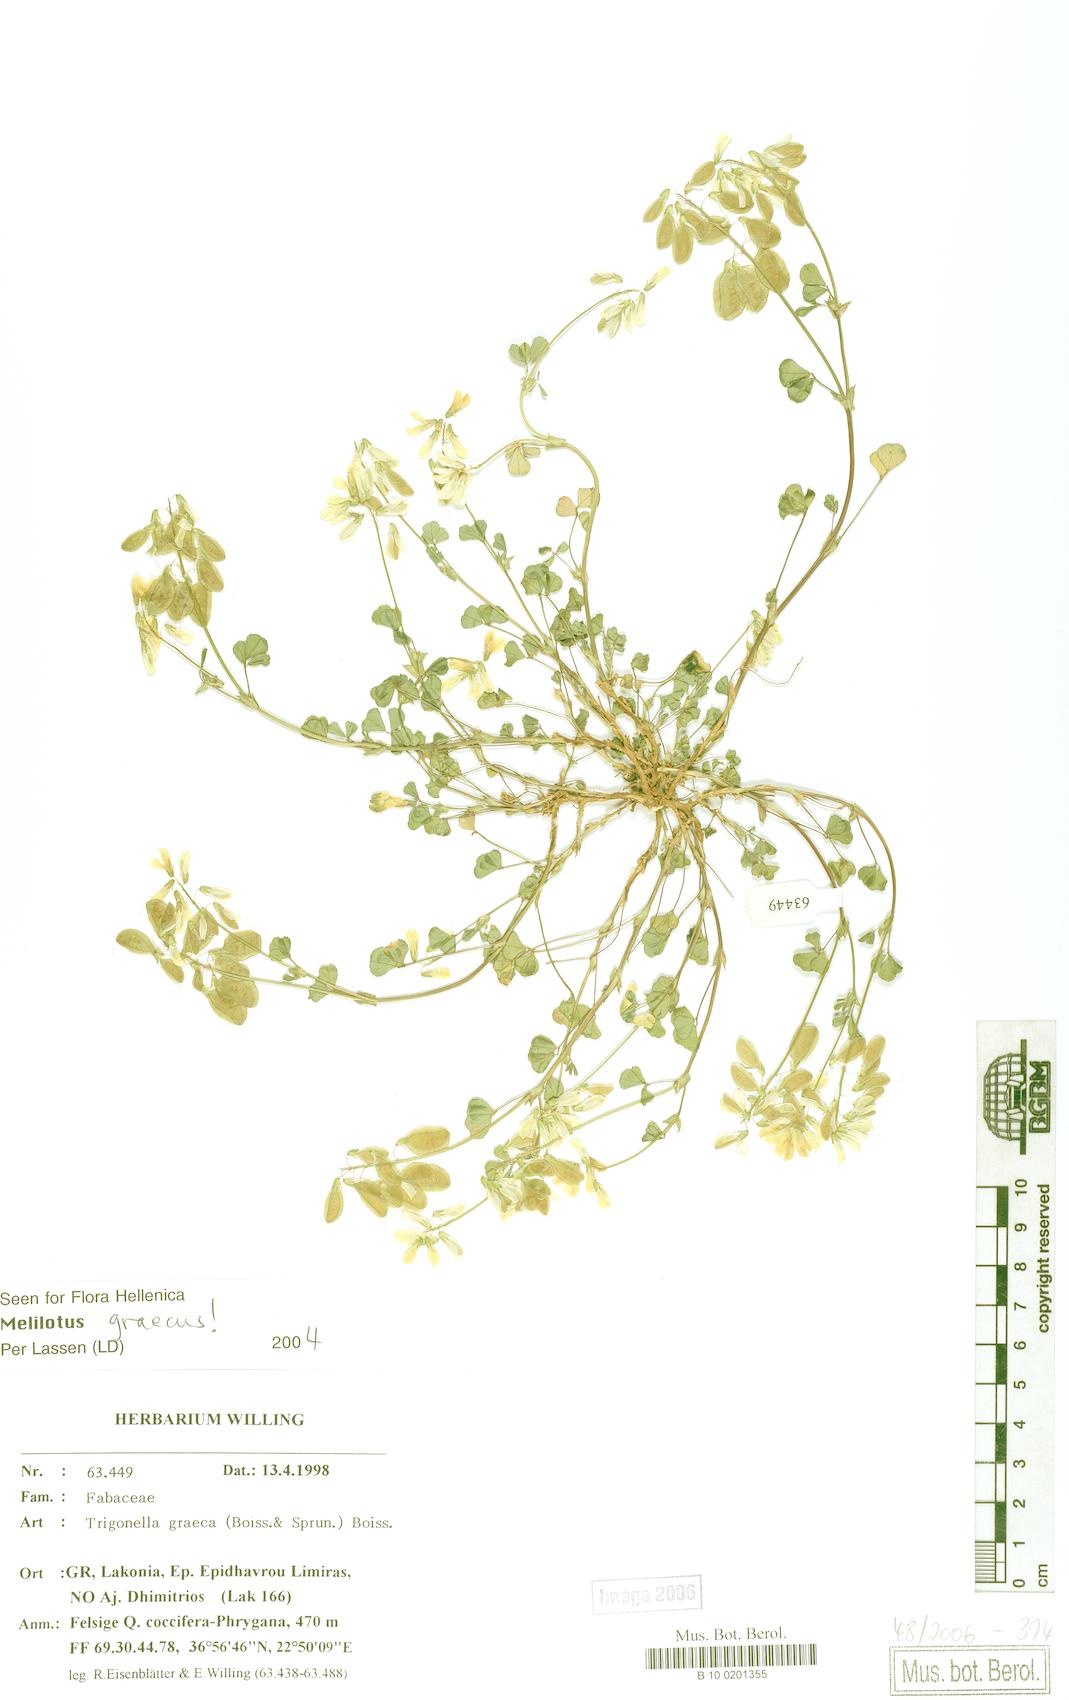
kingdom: Plantae
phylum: Tracheophyta
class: Magnoliopsida
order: Fabales
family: Fabaceae
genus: Trigonella
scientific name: Trigonella graeca
